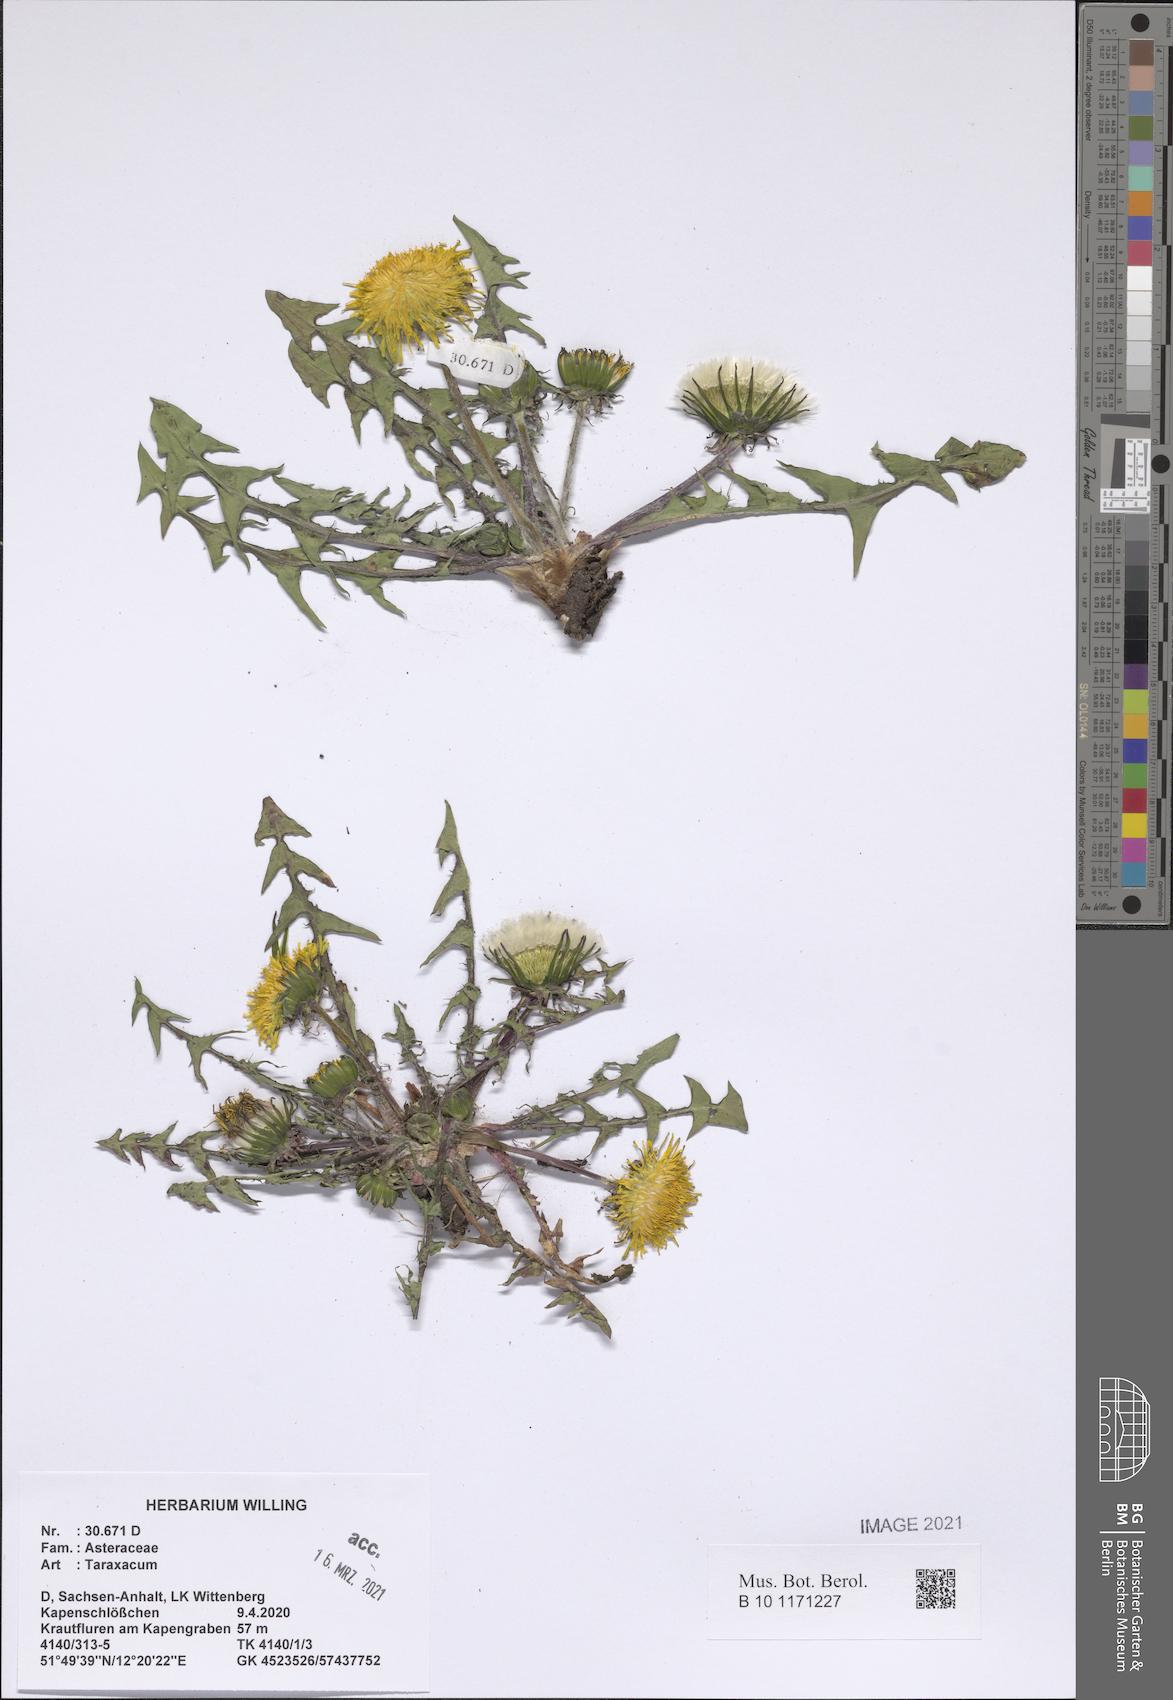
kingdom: Plantae
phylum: Tracheophyta
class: Magnoliopsida
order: Asterales
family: Asteraceae
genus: Taraxacum
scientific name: Taraxacum
